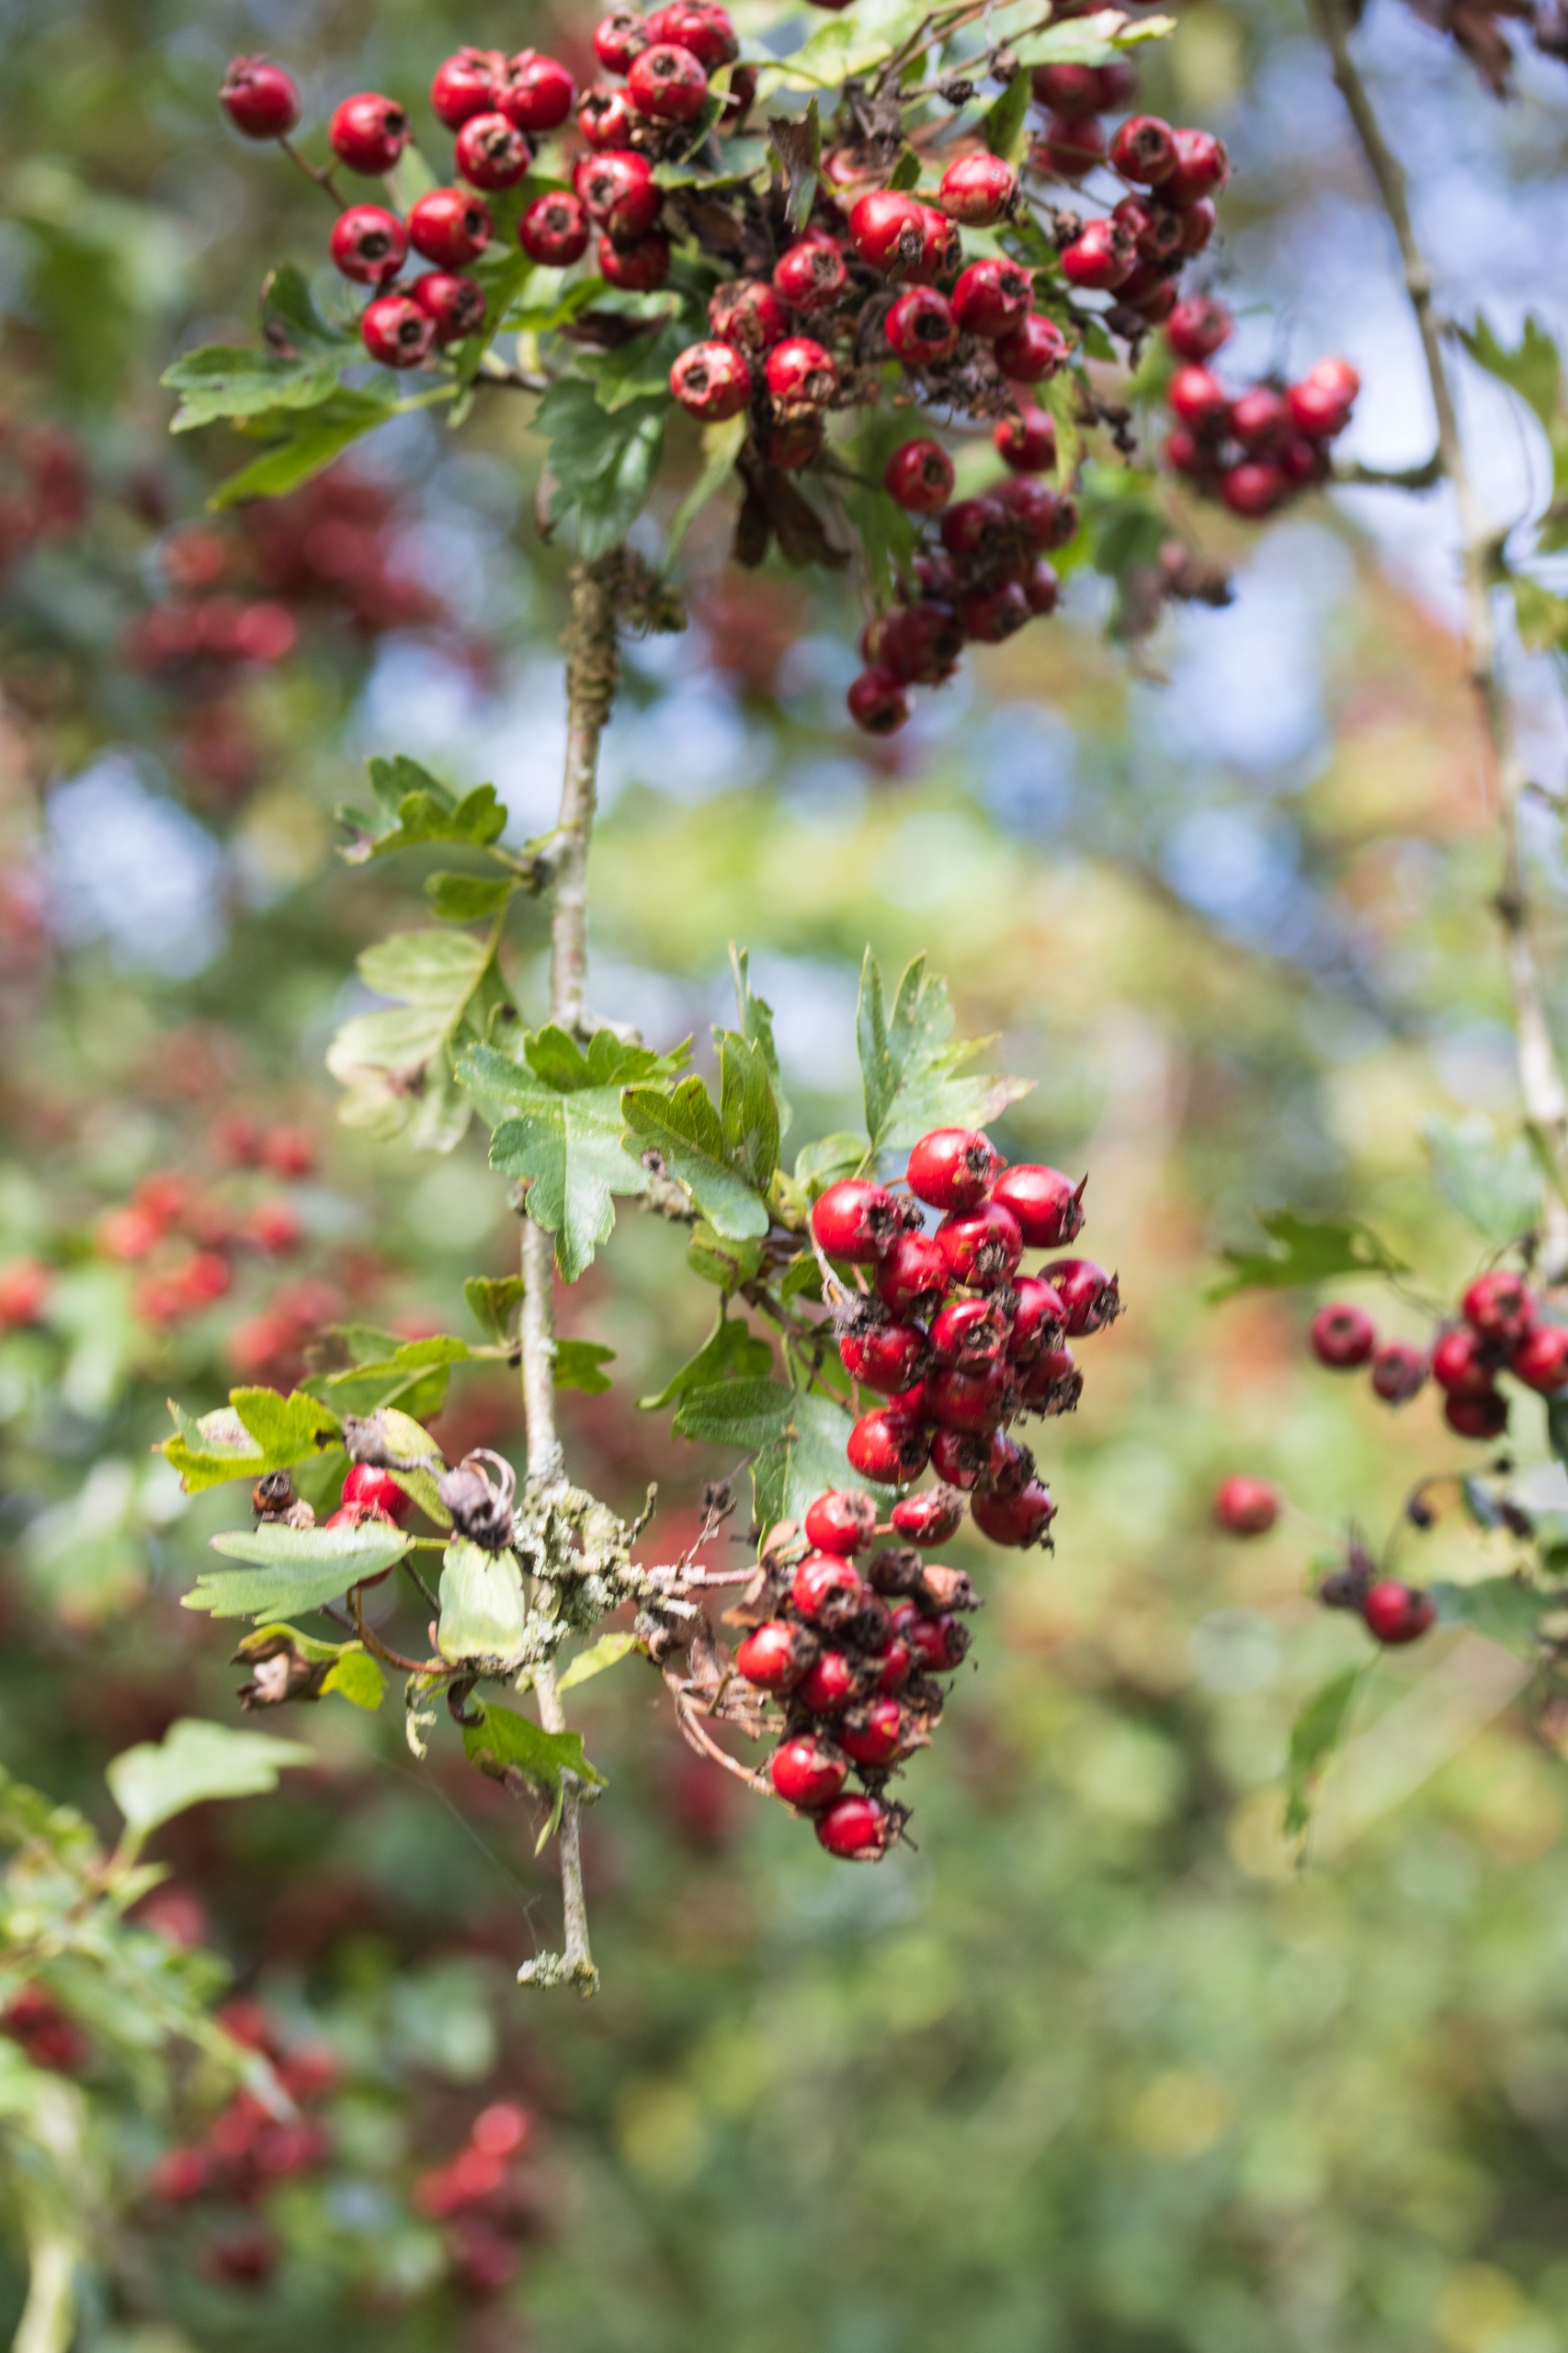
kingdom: Plantae
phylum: Tracheophyta
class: Magnoliopsida
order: Rosales
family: Rosaceae
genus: Crataegus
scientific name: Crataegus monogyna
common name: Engriflet hvidtjørn
